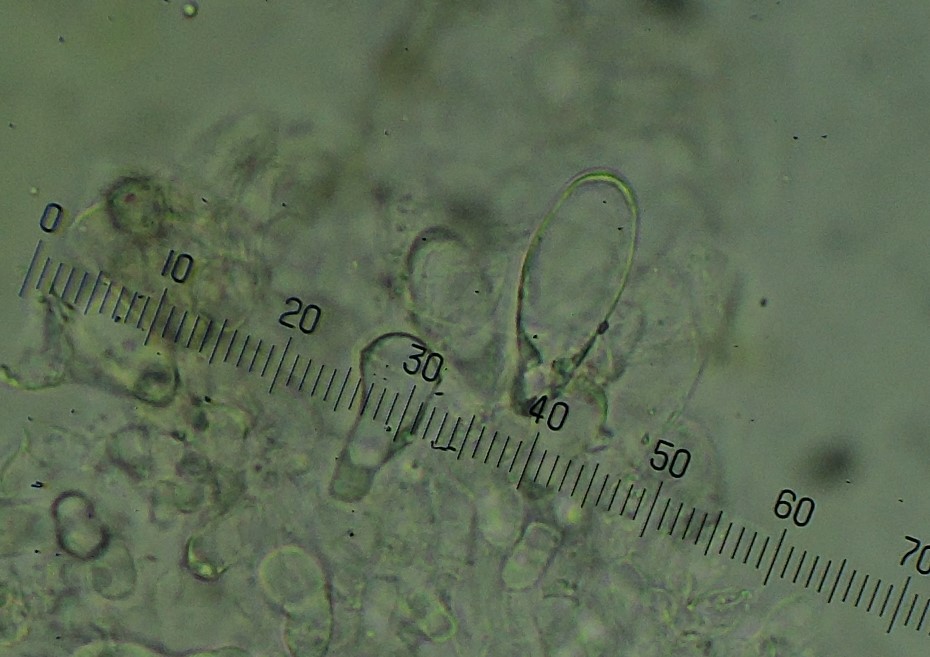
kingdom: Fungi
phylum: Basidiomycota
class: Agaricomycetes
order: Agaricales
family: Pluteaceae
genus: Pluteus
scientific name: Pluteus romellii
